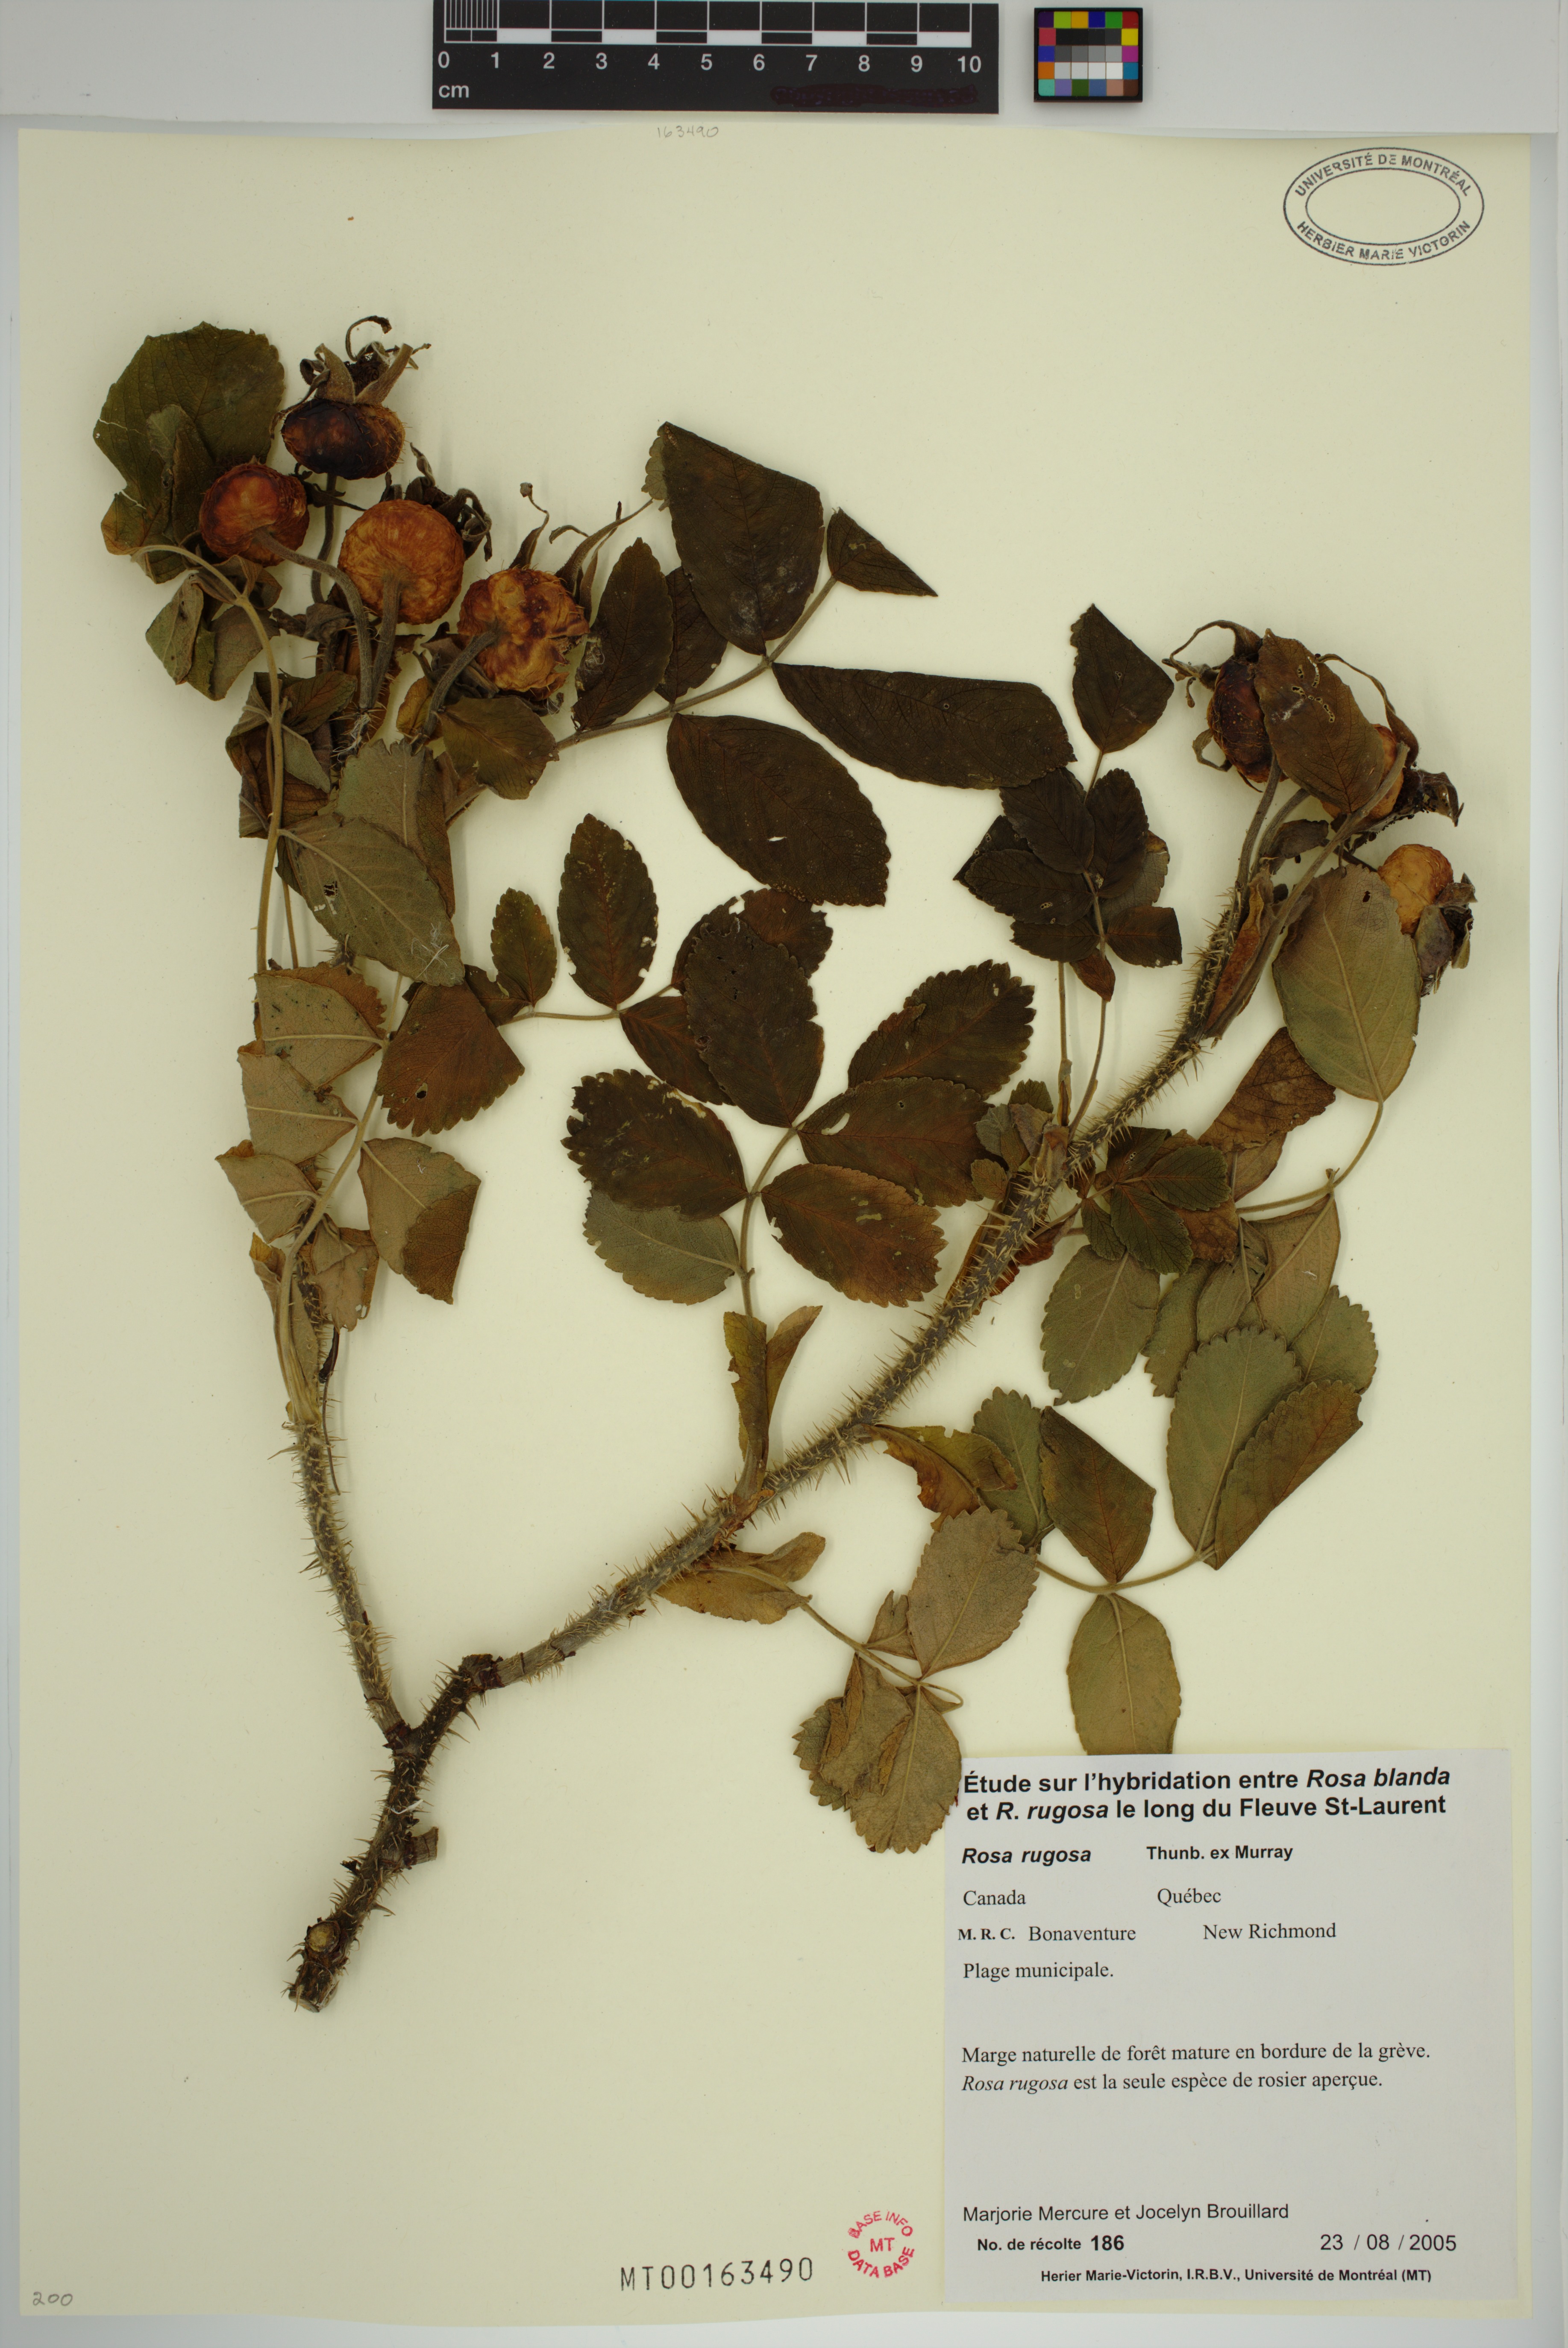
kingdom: Plantae
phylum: Tracheophyta
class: Magnoliopsida
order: Rosales
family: Rosaceae
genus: Rosa
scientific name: Rosa rugosa
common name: Japanese rose
